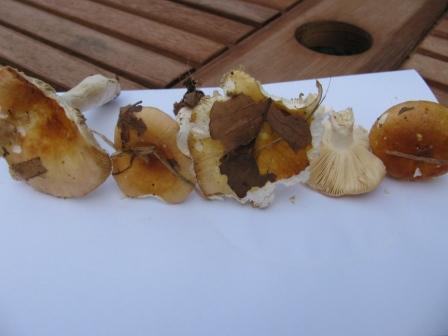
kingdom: Fungi
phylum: Basidiomycota
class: Agaricomycetes
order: Russulales
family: Russulaceae
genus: Russula
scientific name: Russula veternosa
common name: blødkødet skørhat
